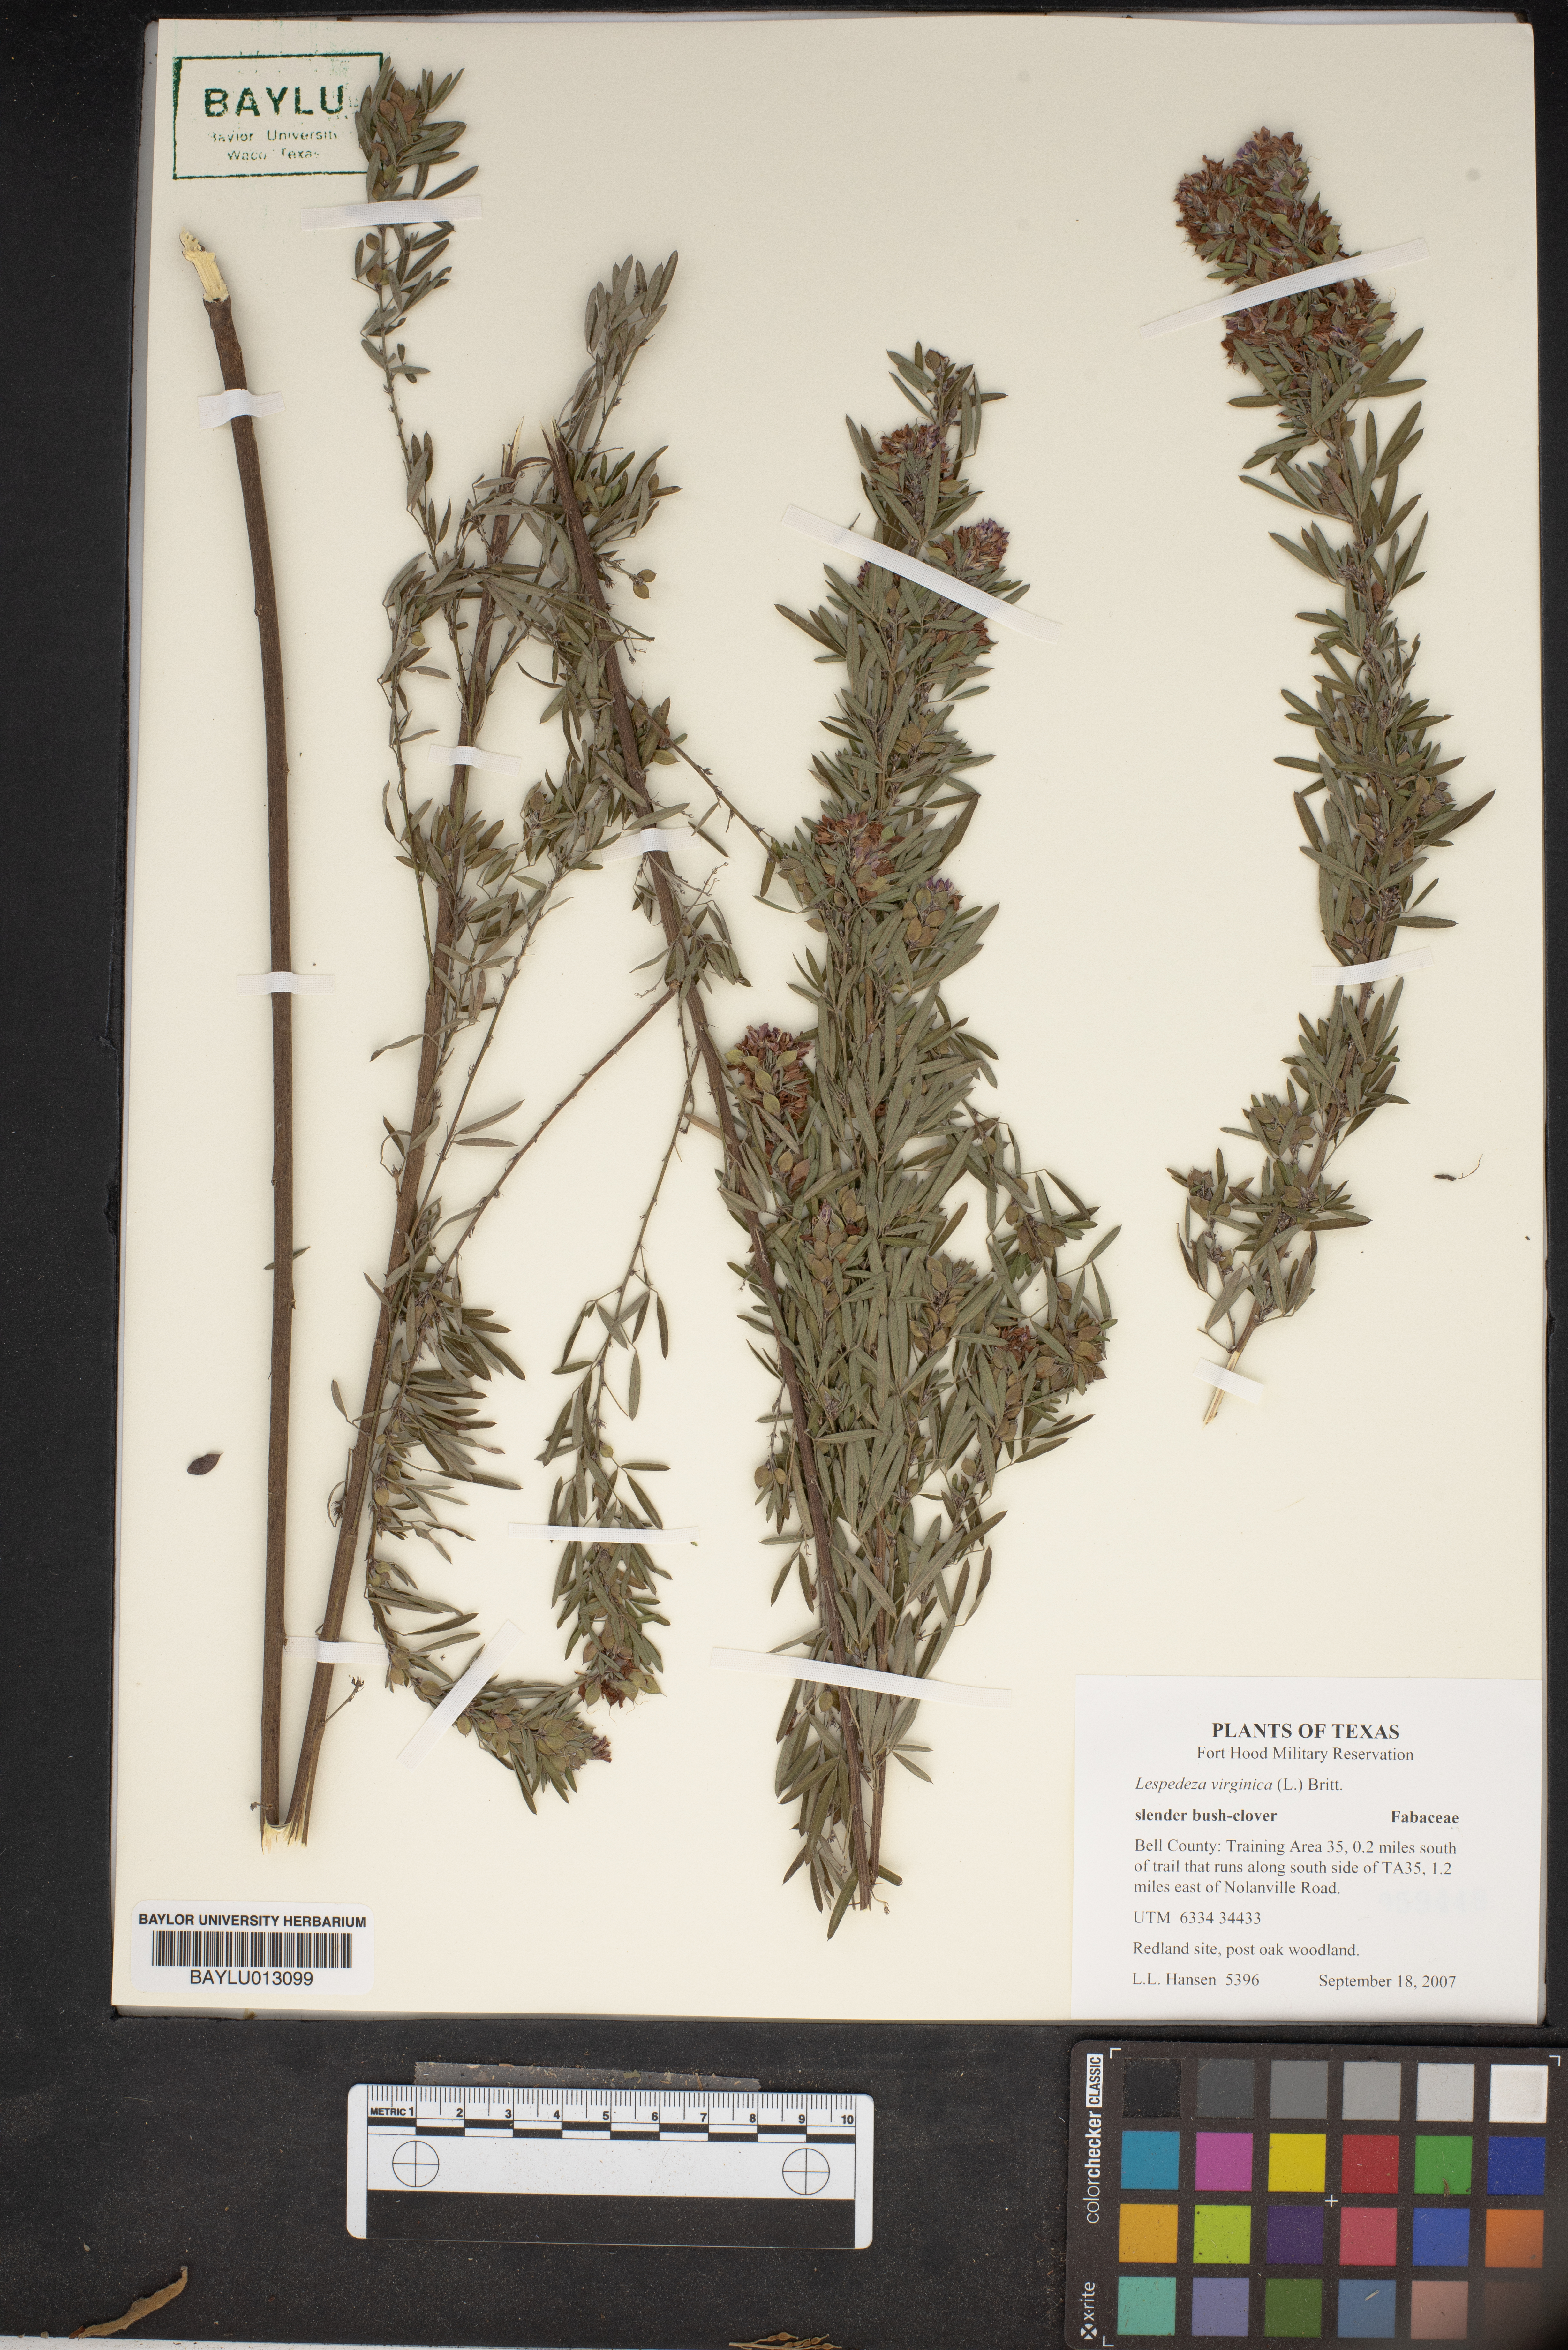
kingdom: Plantae
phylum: Tracheophyta
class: Magnoliopsida
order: Fabales
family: Fabaceae
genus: Lespedeza
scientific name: Lespedeza virginica
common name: Slender bush-clover
